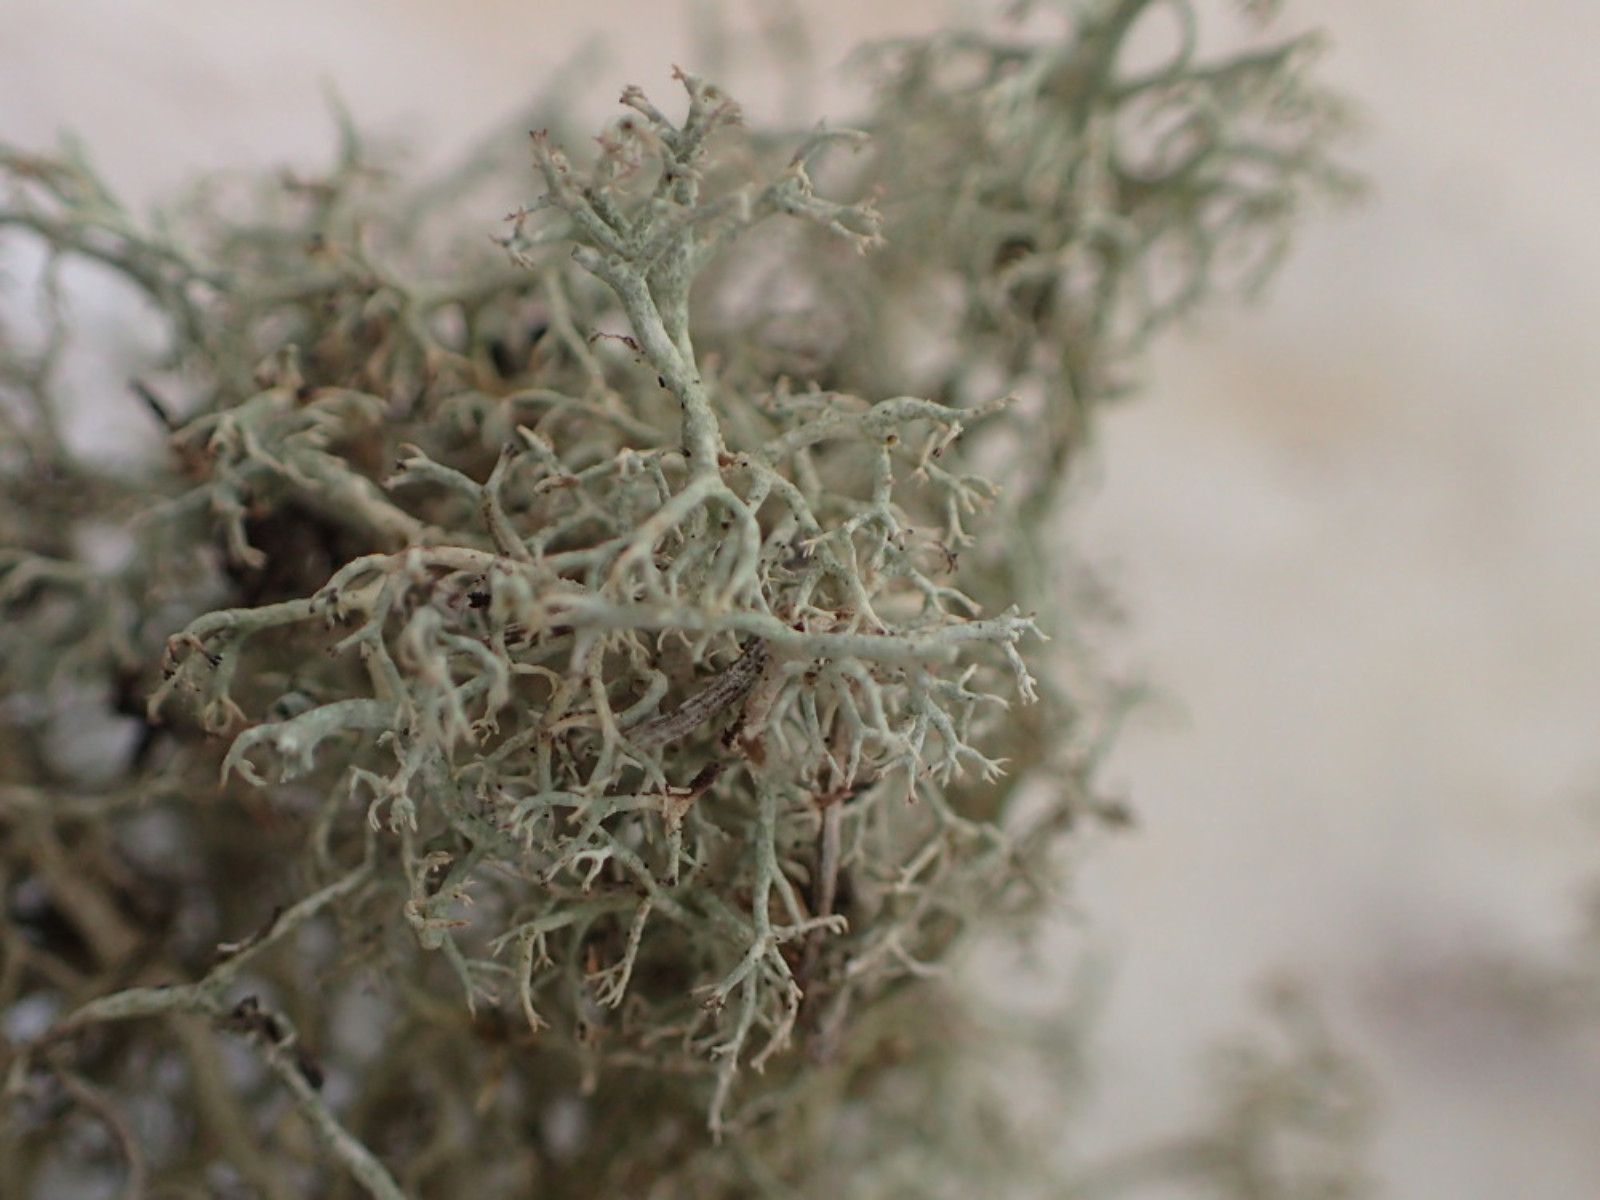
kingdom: Fungi
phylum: Ascomycota
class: Lecanoromycetes
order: Lecanorales
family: Cladoniaceae
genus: Cladonia
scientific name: Cladonia mitis
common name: mild rensdyrlav
